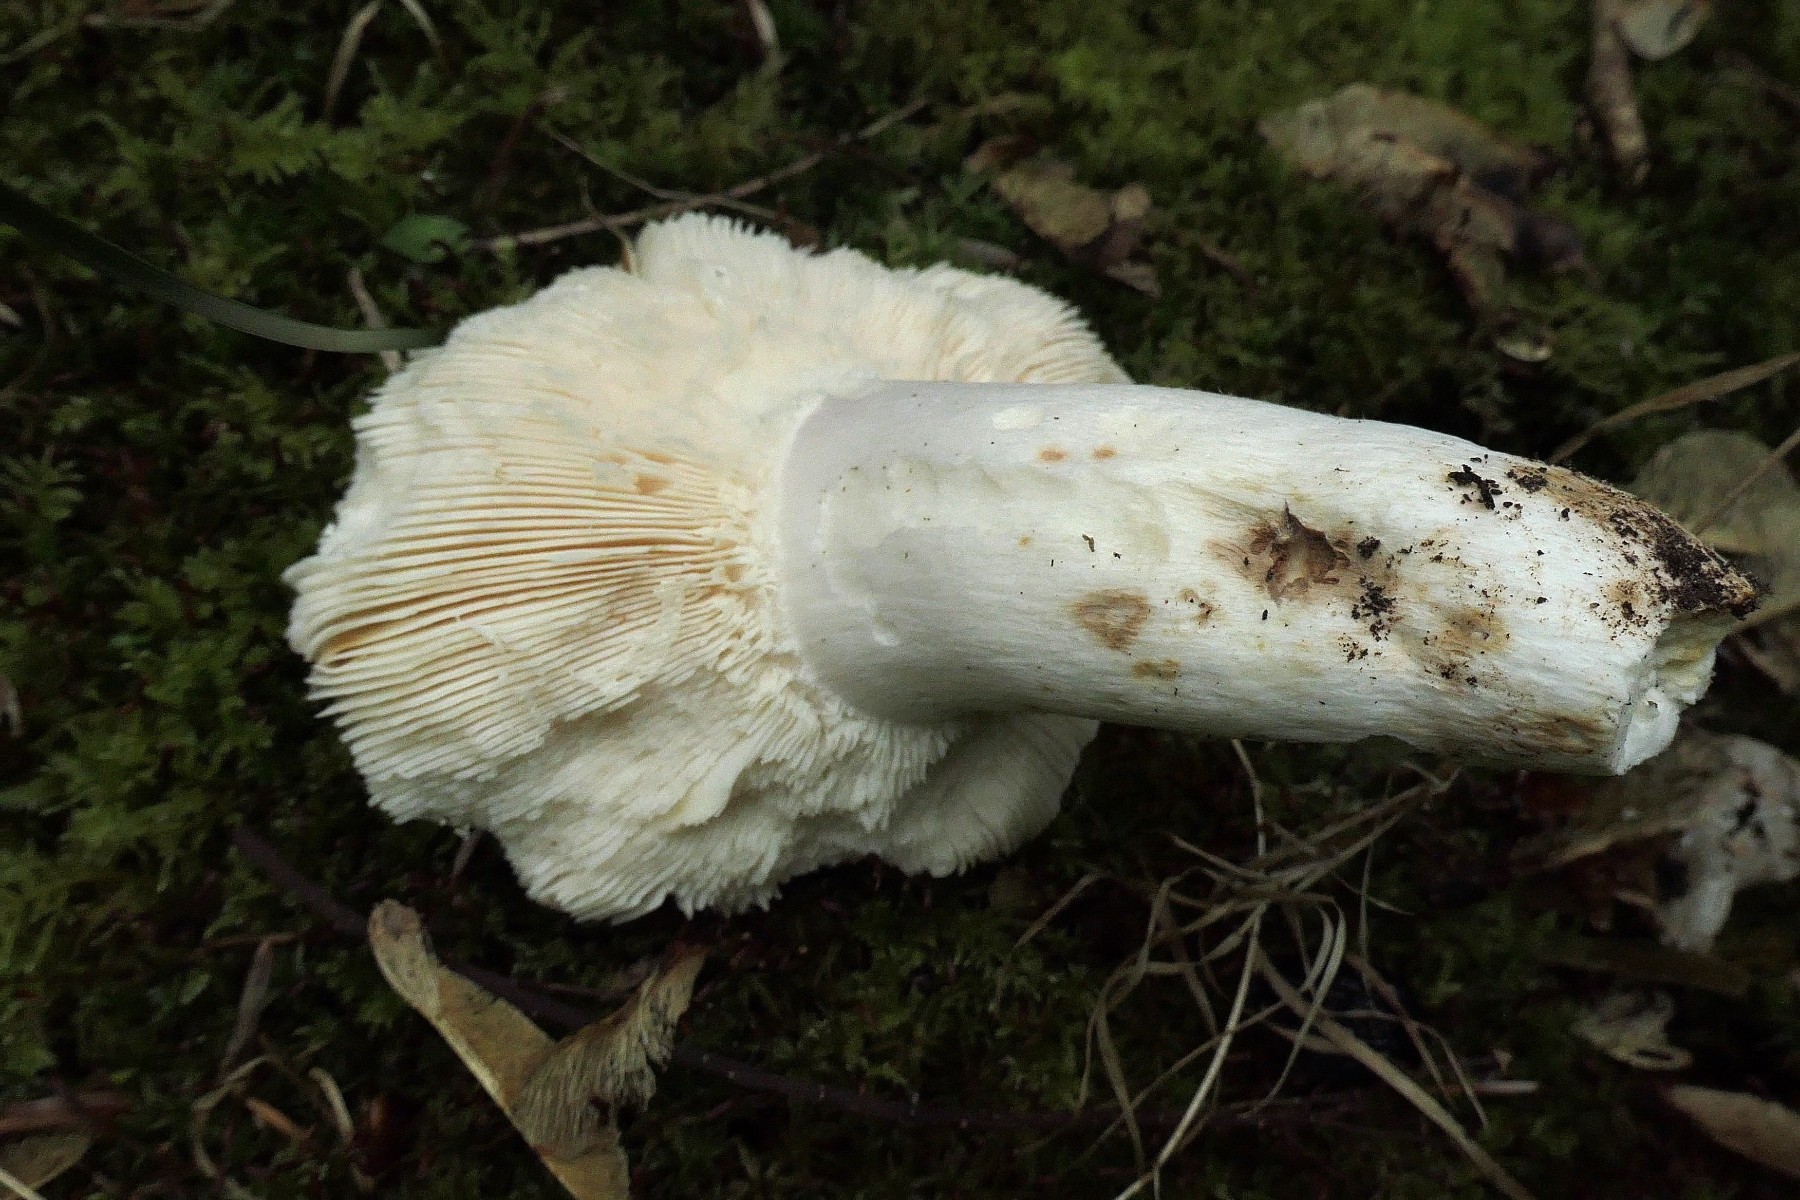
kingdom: Fungi
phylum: Basidiomycota
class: Agaricomycetes
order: Russulales
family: Russulaceae
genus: Russula
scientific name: Russula heterophylla
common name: gaffelbladet skørhat
